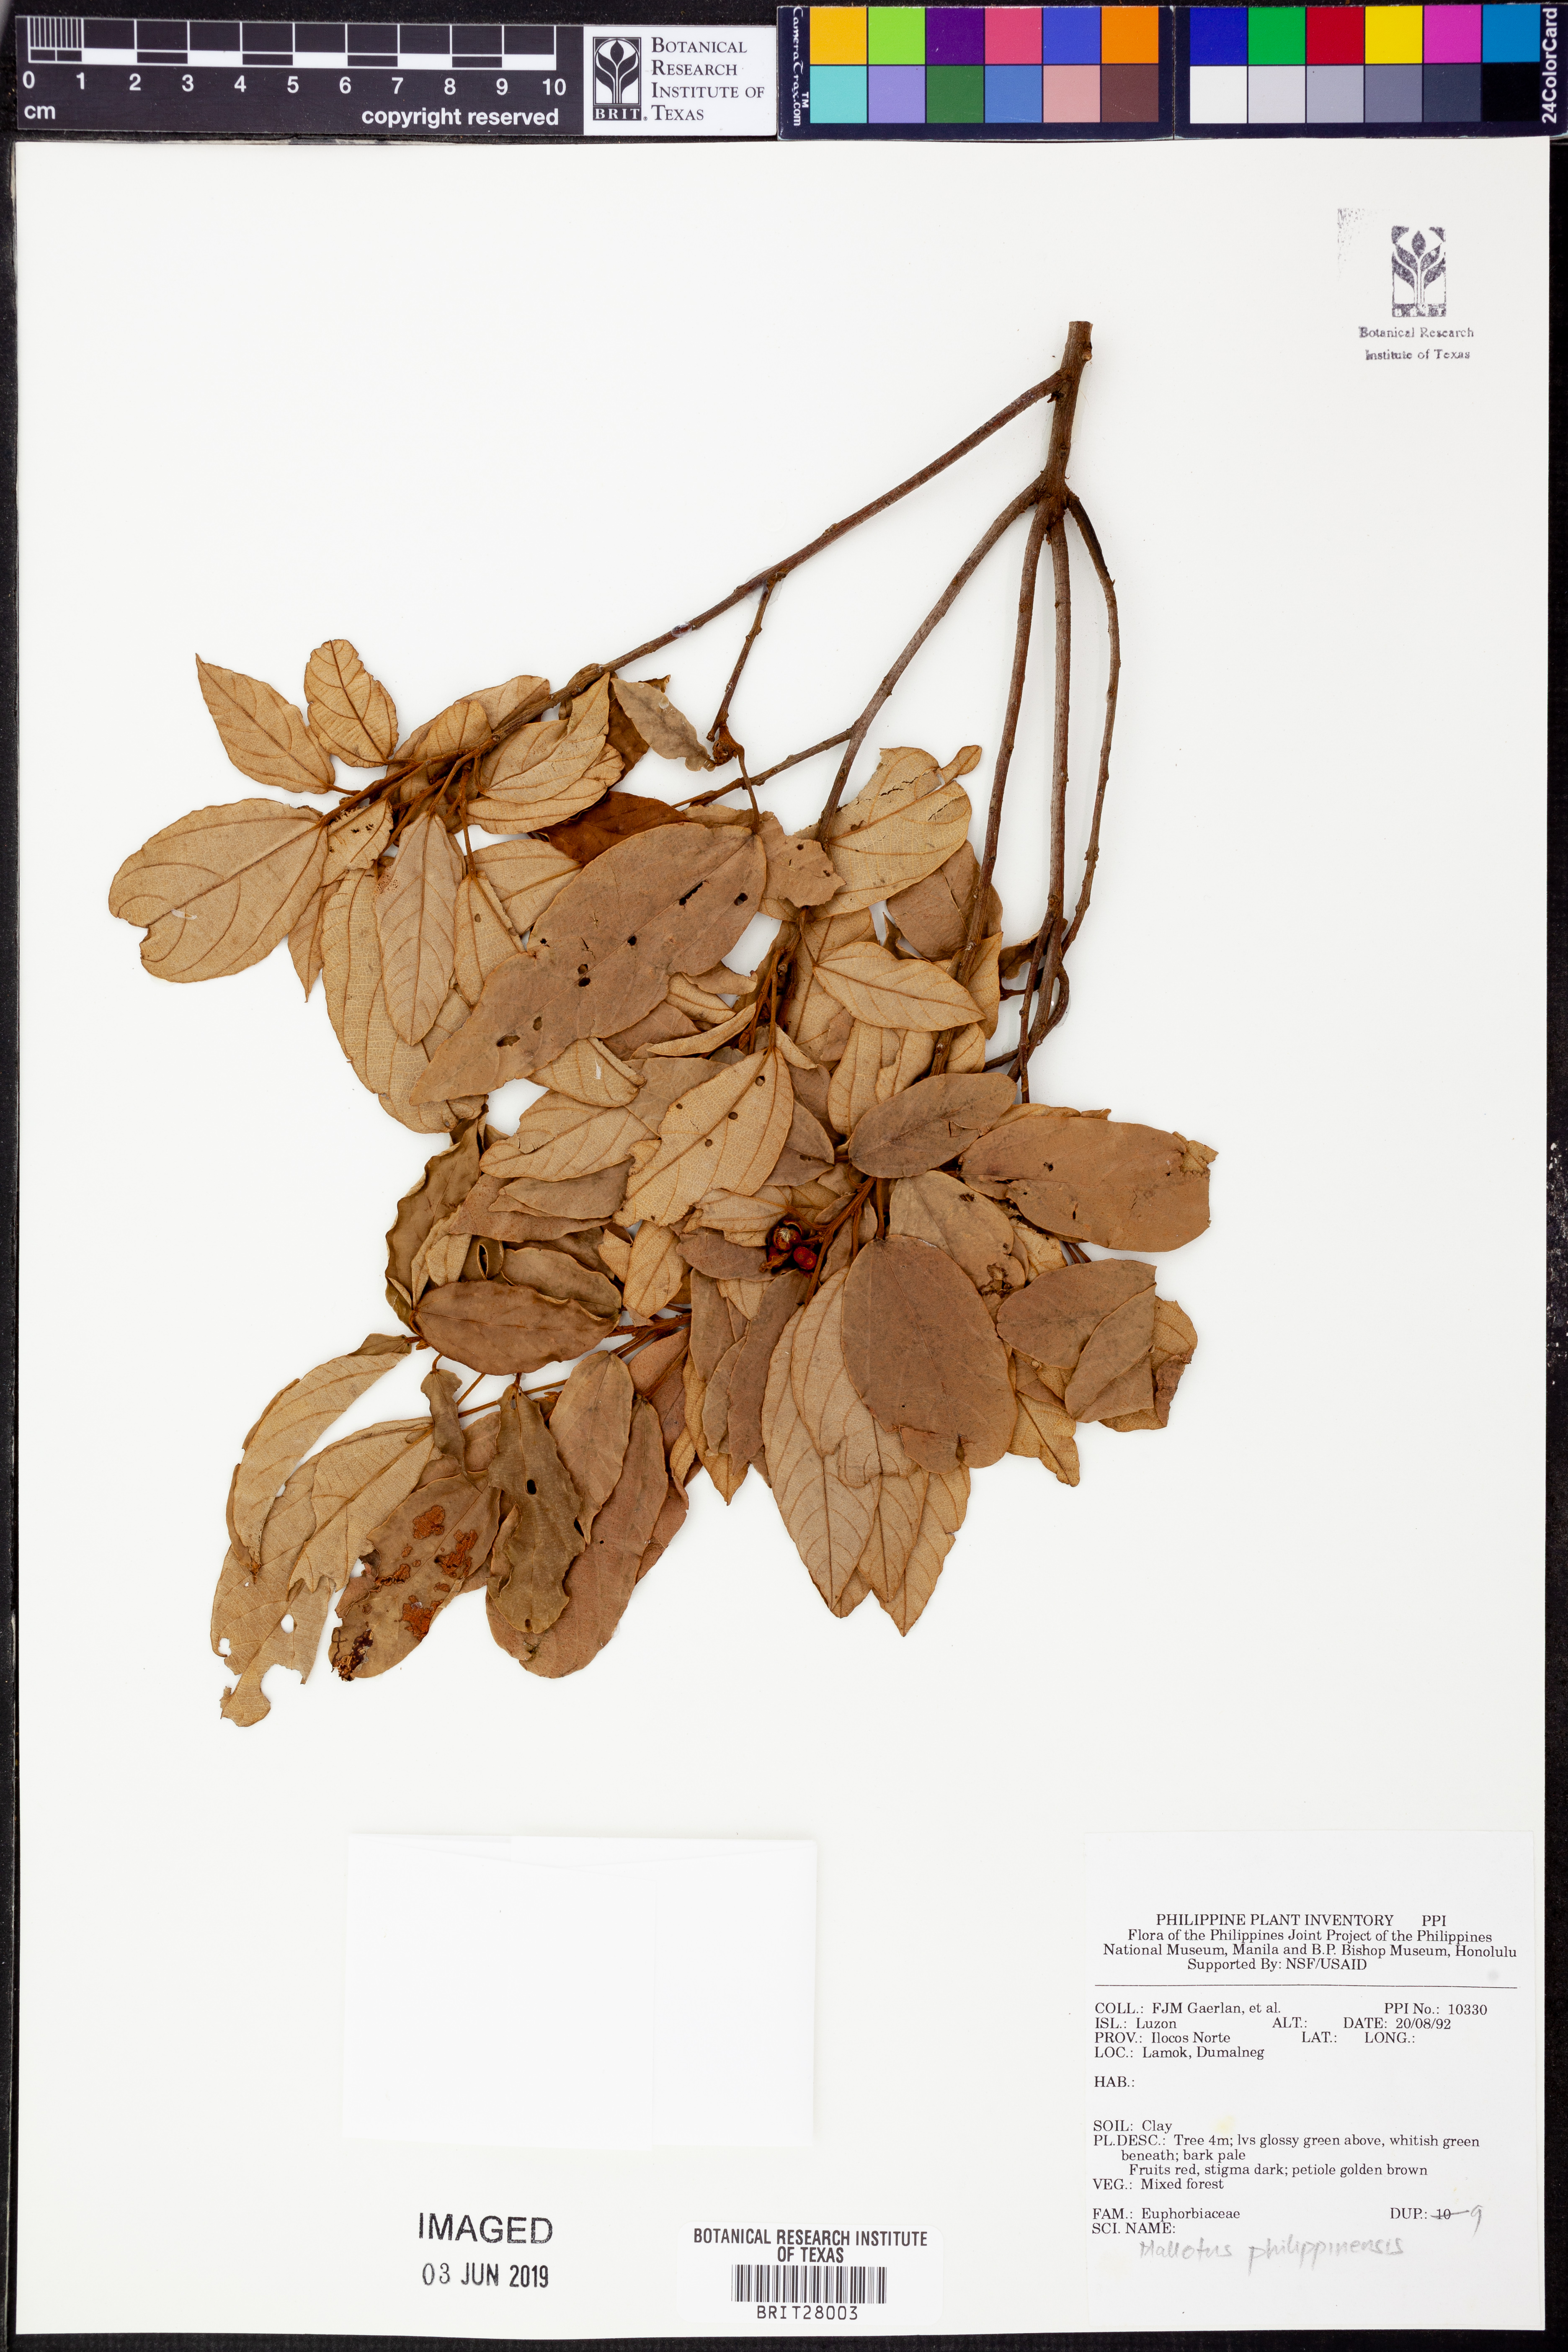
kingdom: Plantae
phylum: Tracheophyta
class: Magnoliopsida
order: Malpighiales
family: Euphorbiaceae
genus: Mallotus
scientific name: Mallotus philippensis
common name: Kamala tree
